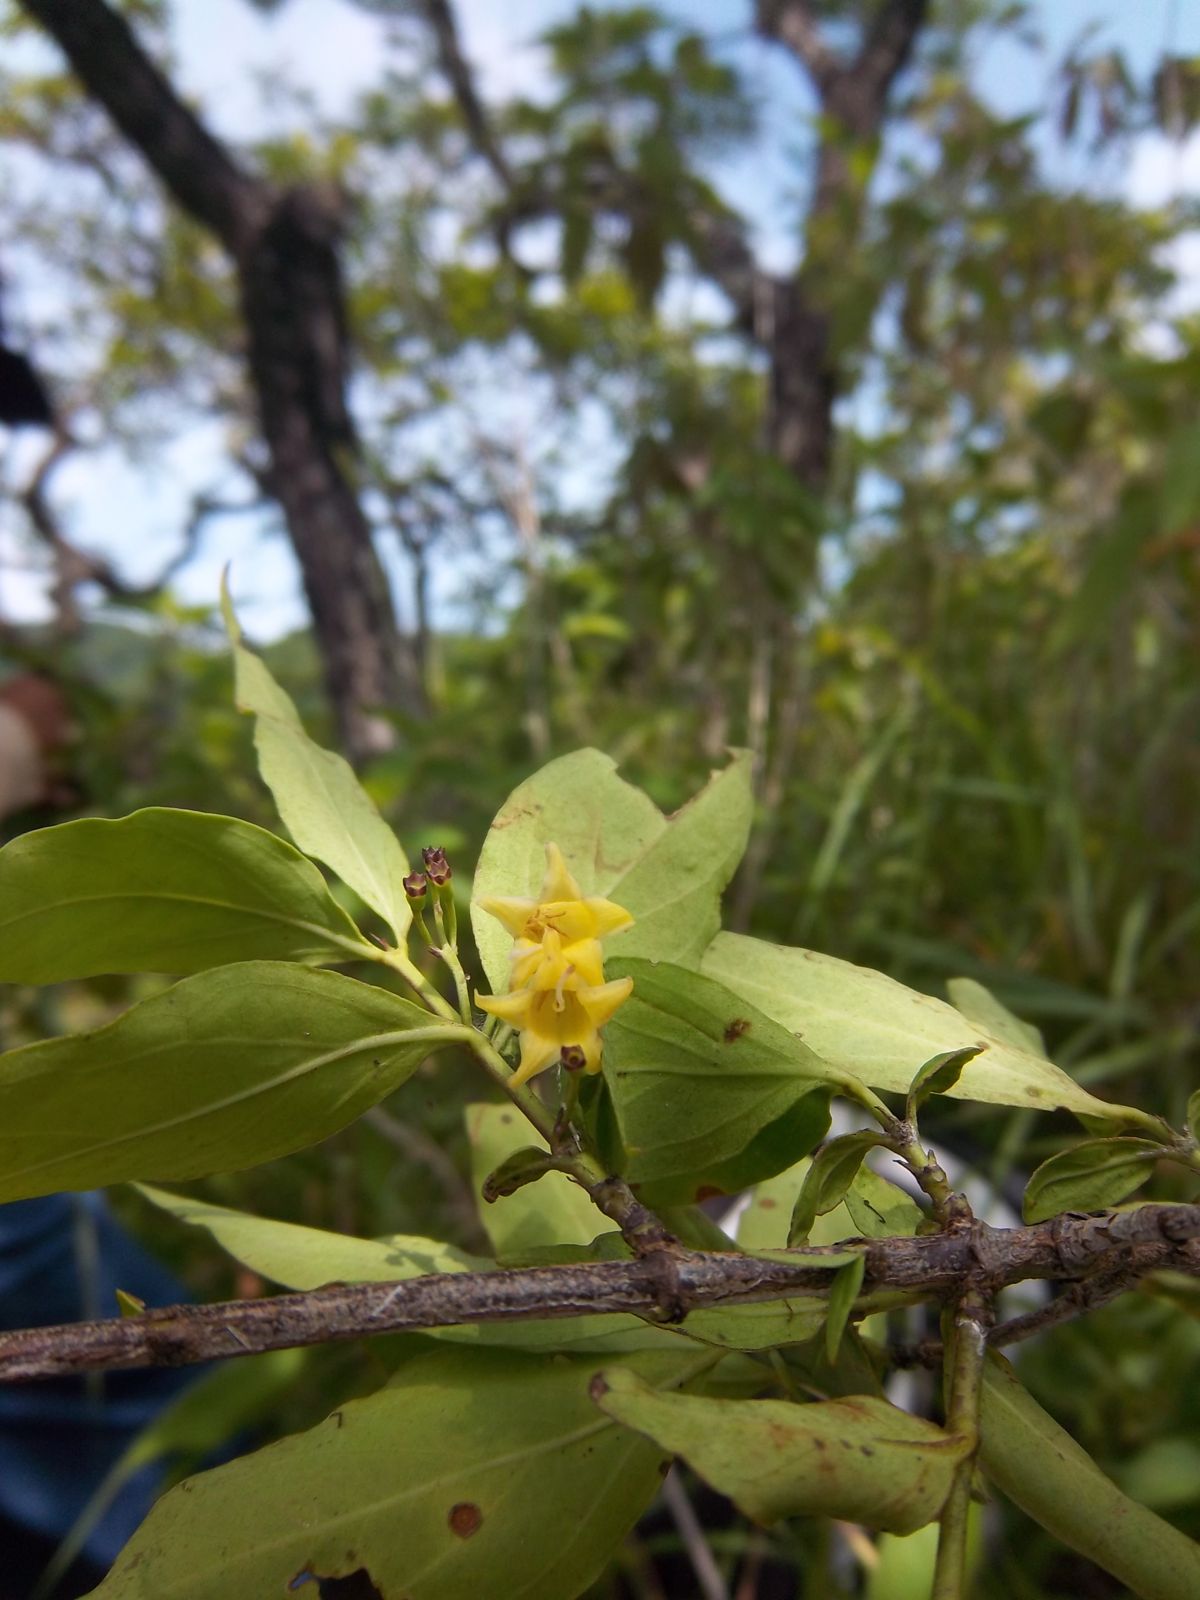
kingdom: Plantae
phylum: Tracheophyta
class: Magnoliopsida
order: Gentianales
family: Rubiaceae
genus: Chiococca
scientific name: Chiococca alba
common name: Snowberry
